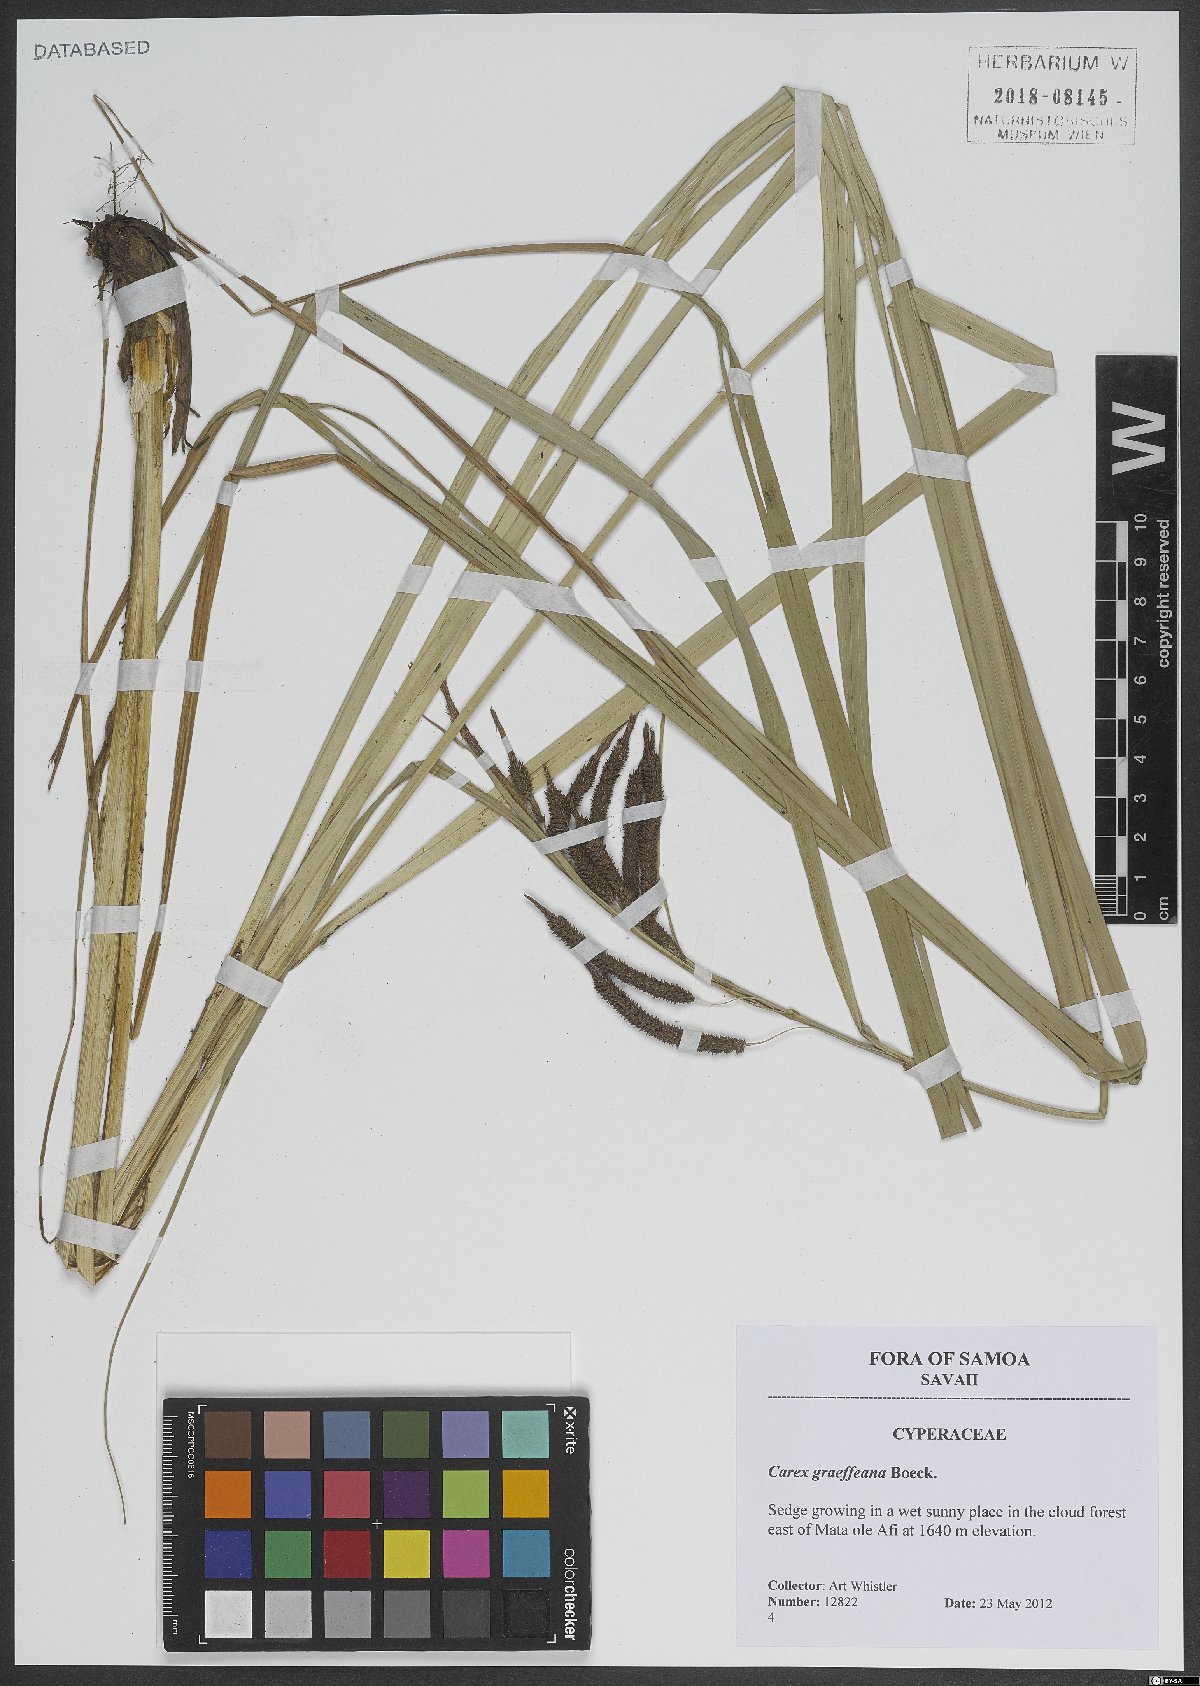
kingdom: Plantae
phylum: Tracheophyta
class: Liliopsida
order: Poales
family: Cyperaceae
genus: Carex
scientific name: Carex graeffeana
